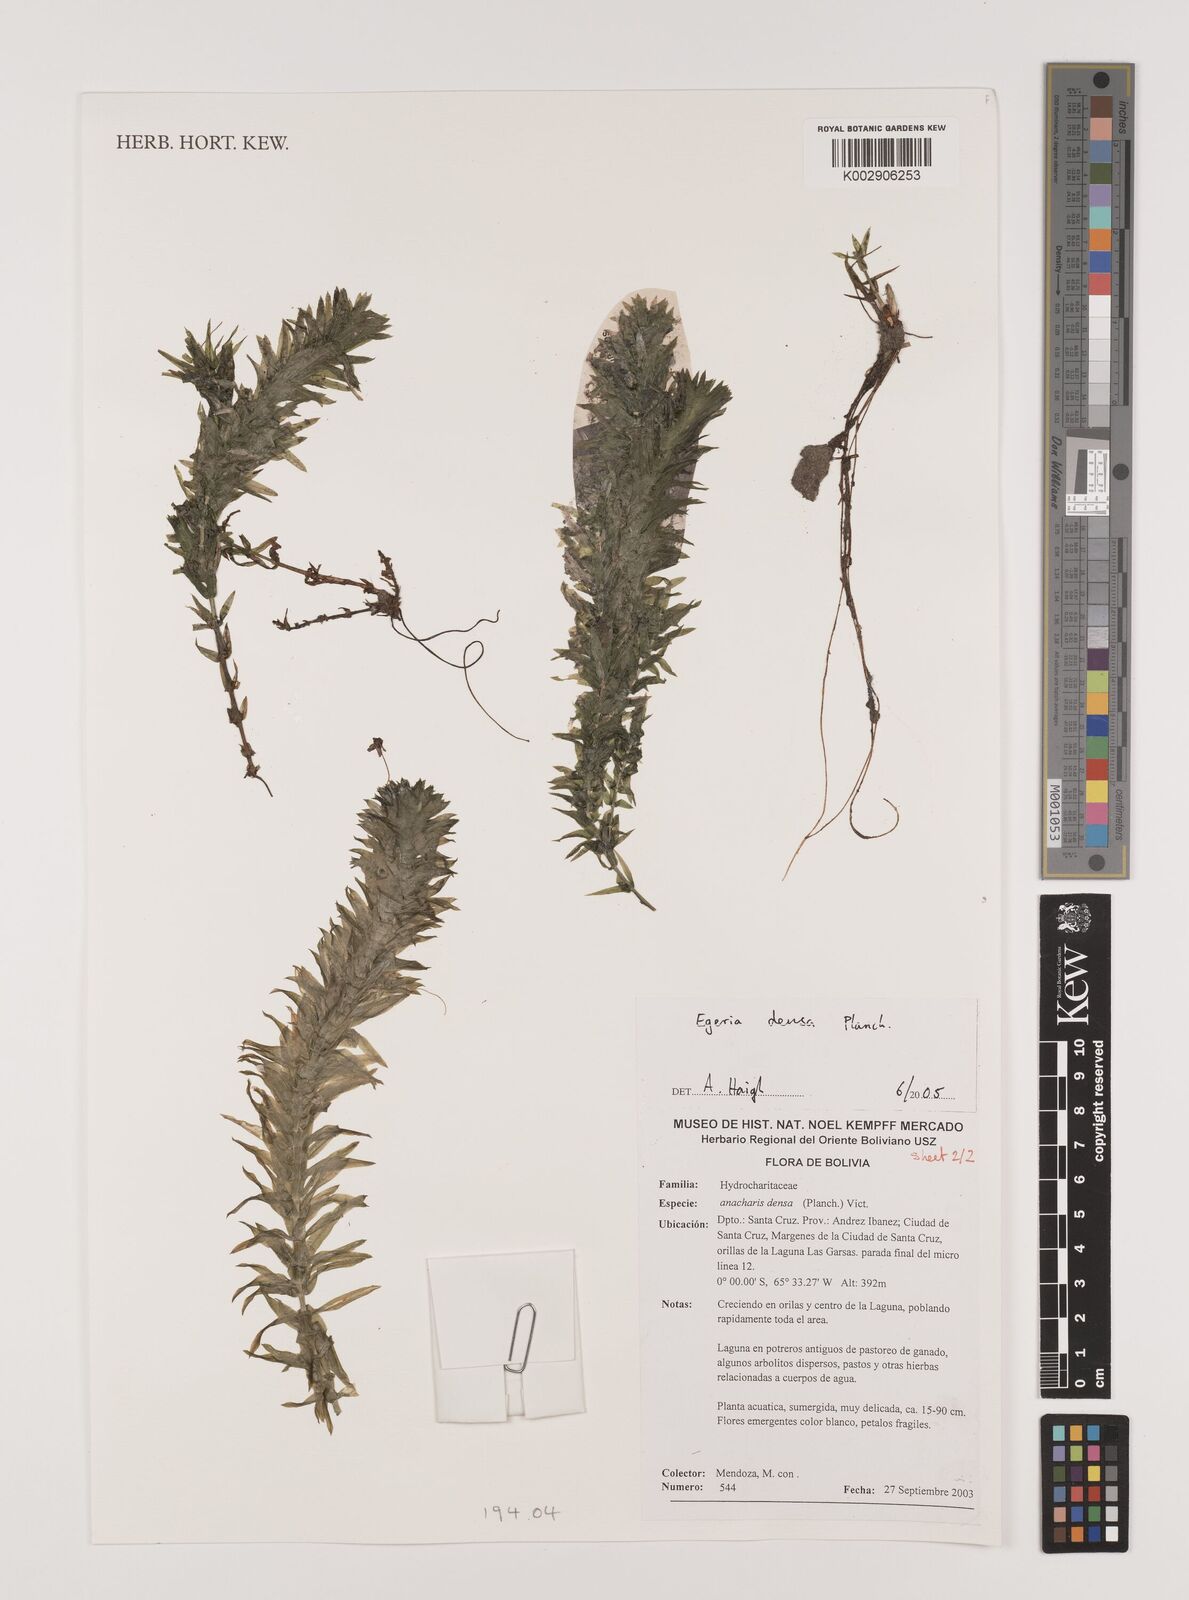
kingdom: Plantae
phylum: Tracheophyta
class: Liliopsida
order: Alismatales
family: Hydrocharitaceae
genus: Elodea
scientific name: Elodea densa
